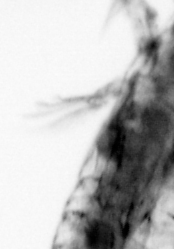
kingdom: Animalia
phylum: Arthropoda
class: Copepoda
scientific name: Copepoda
